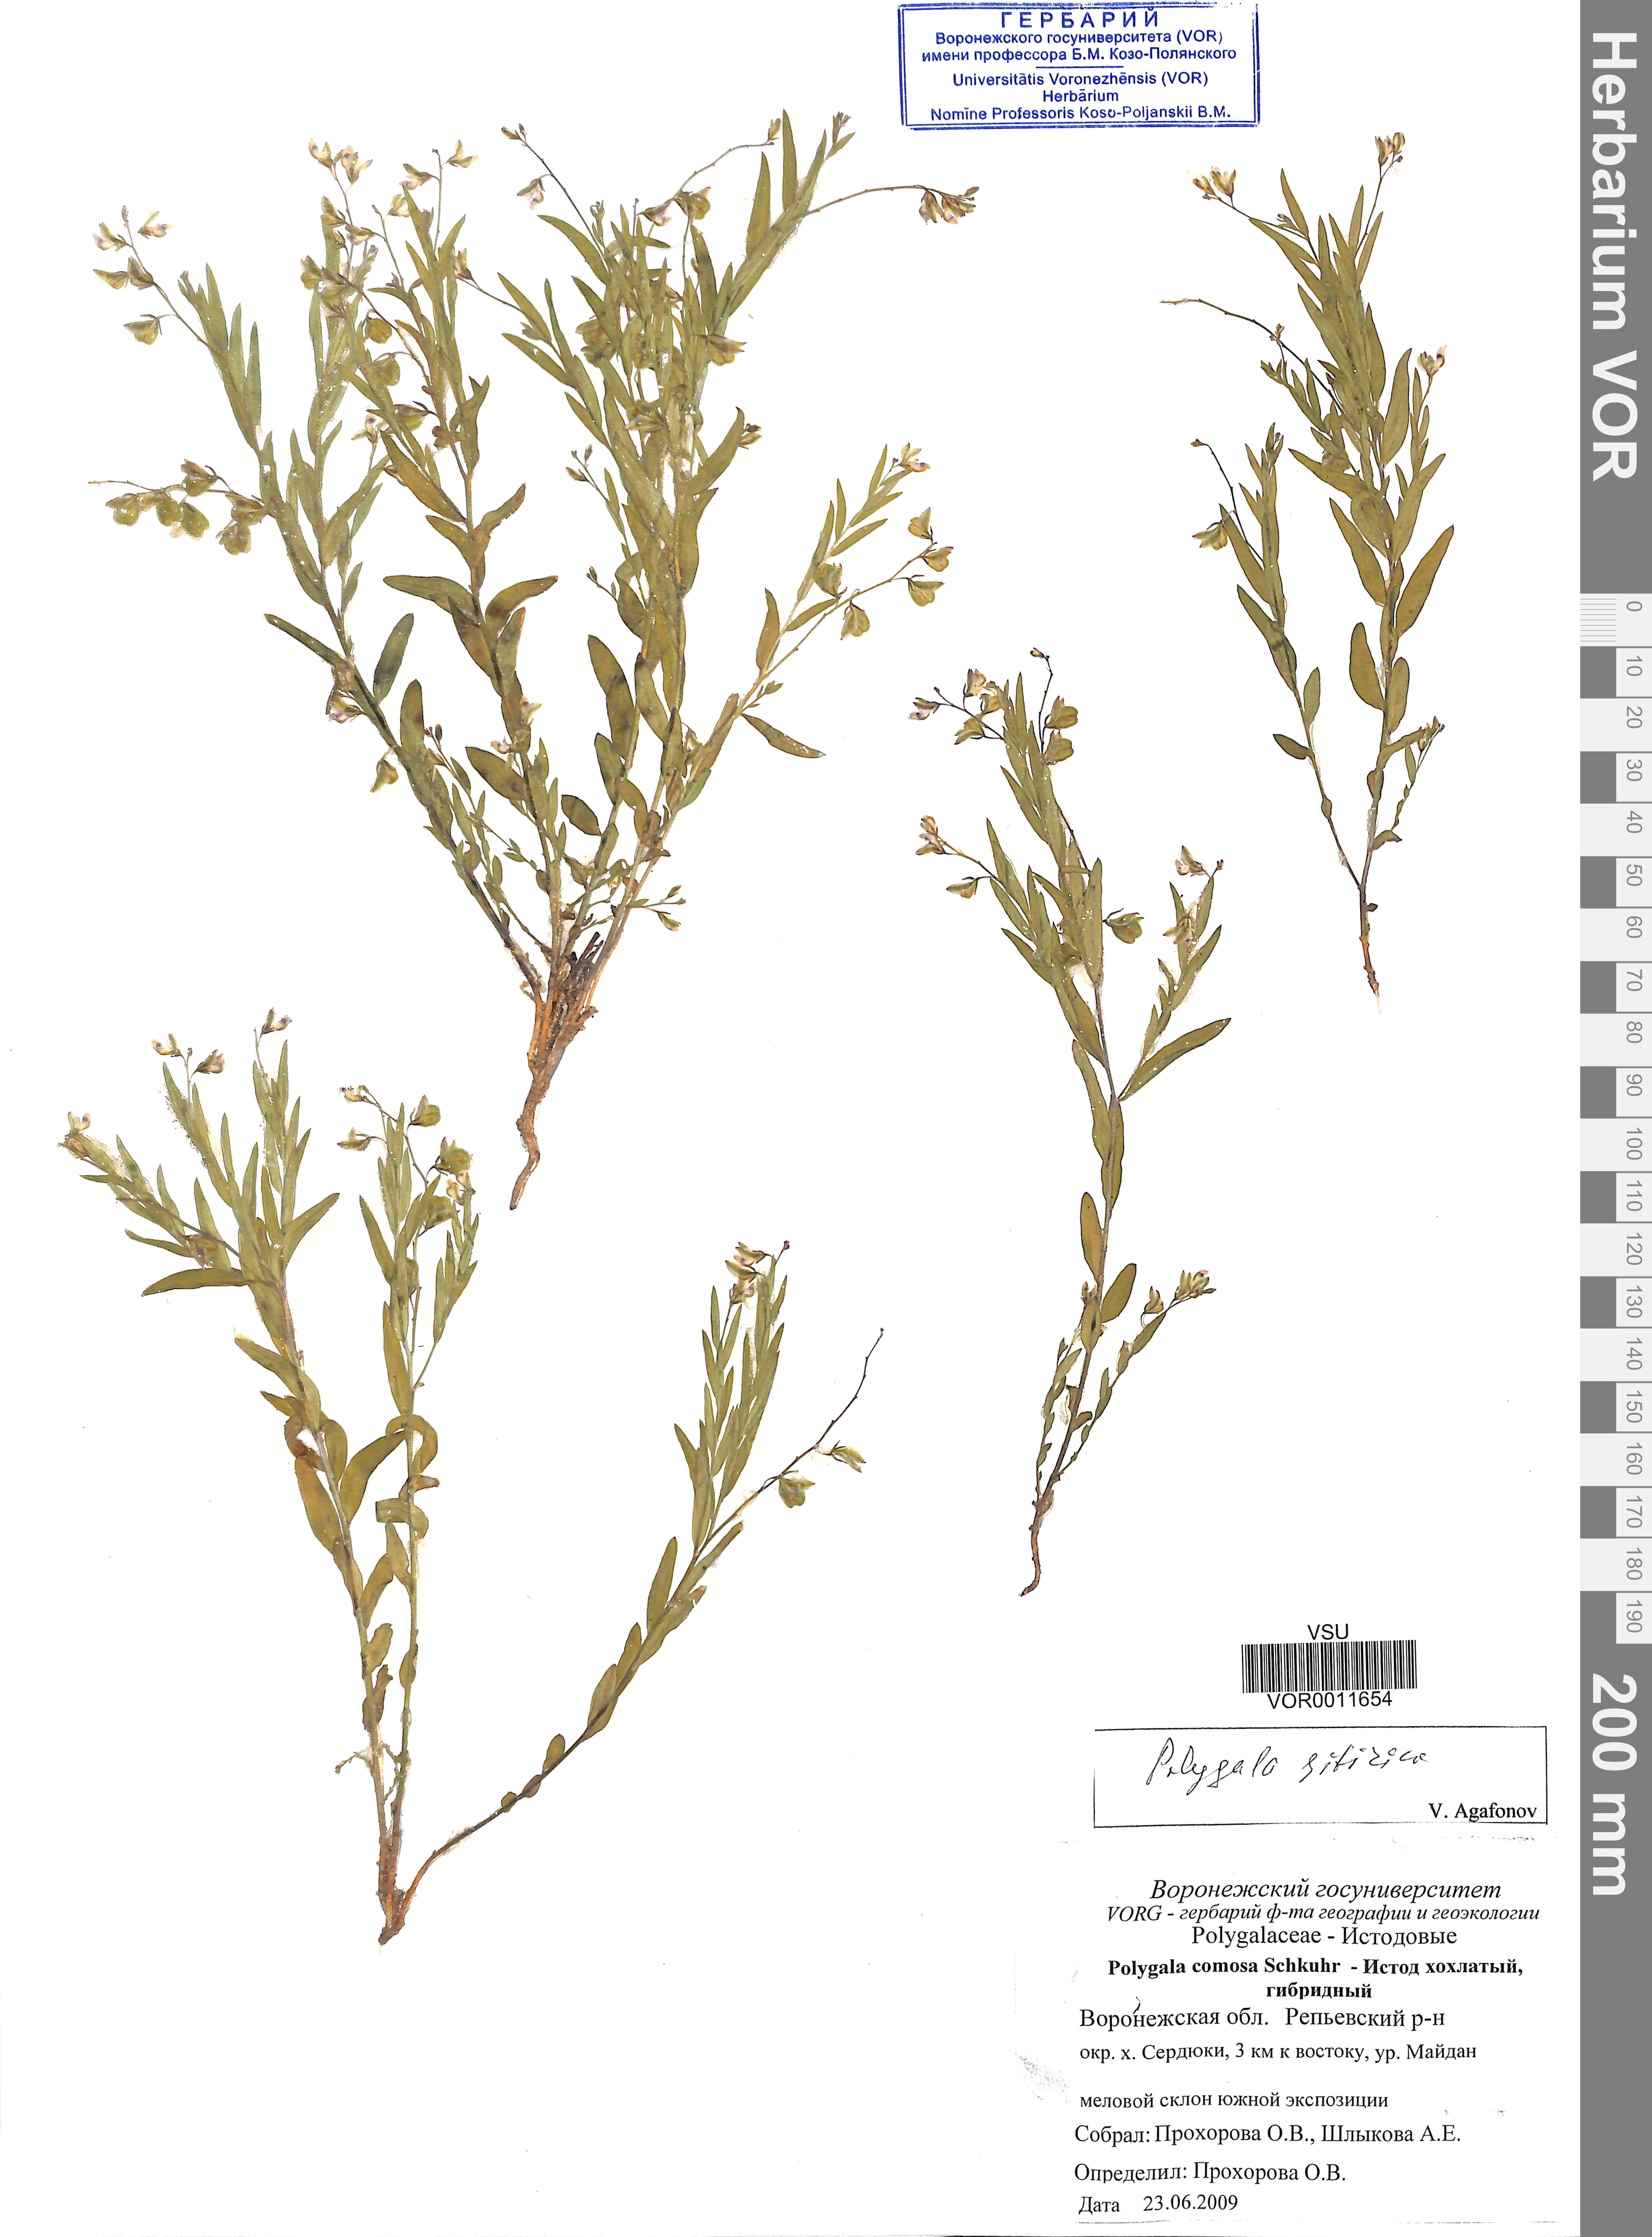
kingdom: Plantae
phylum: Tracheophyta
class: Magnoliopsida
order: Fabales
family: Polygalaceae
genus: Polygala
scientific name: Polygala sibirica
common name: Siberian polygala
